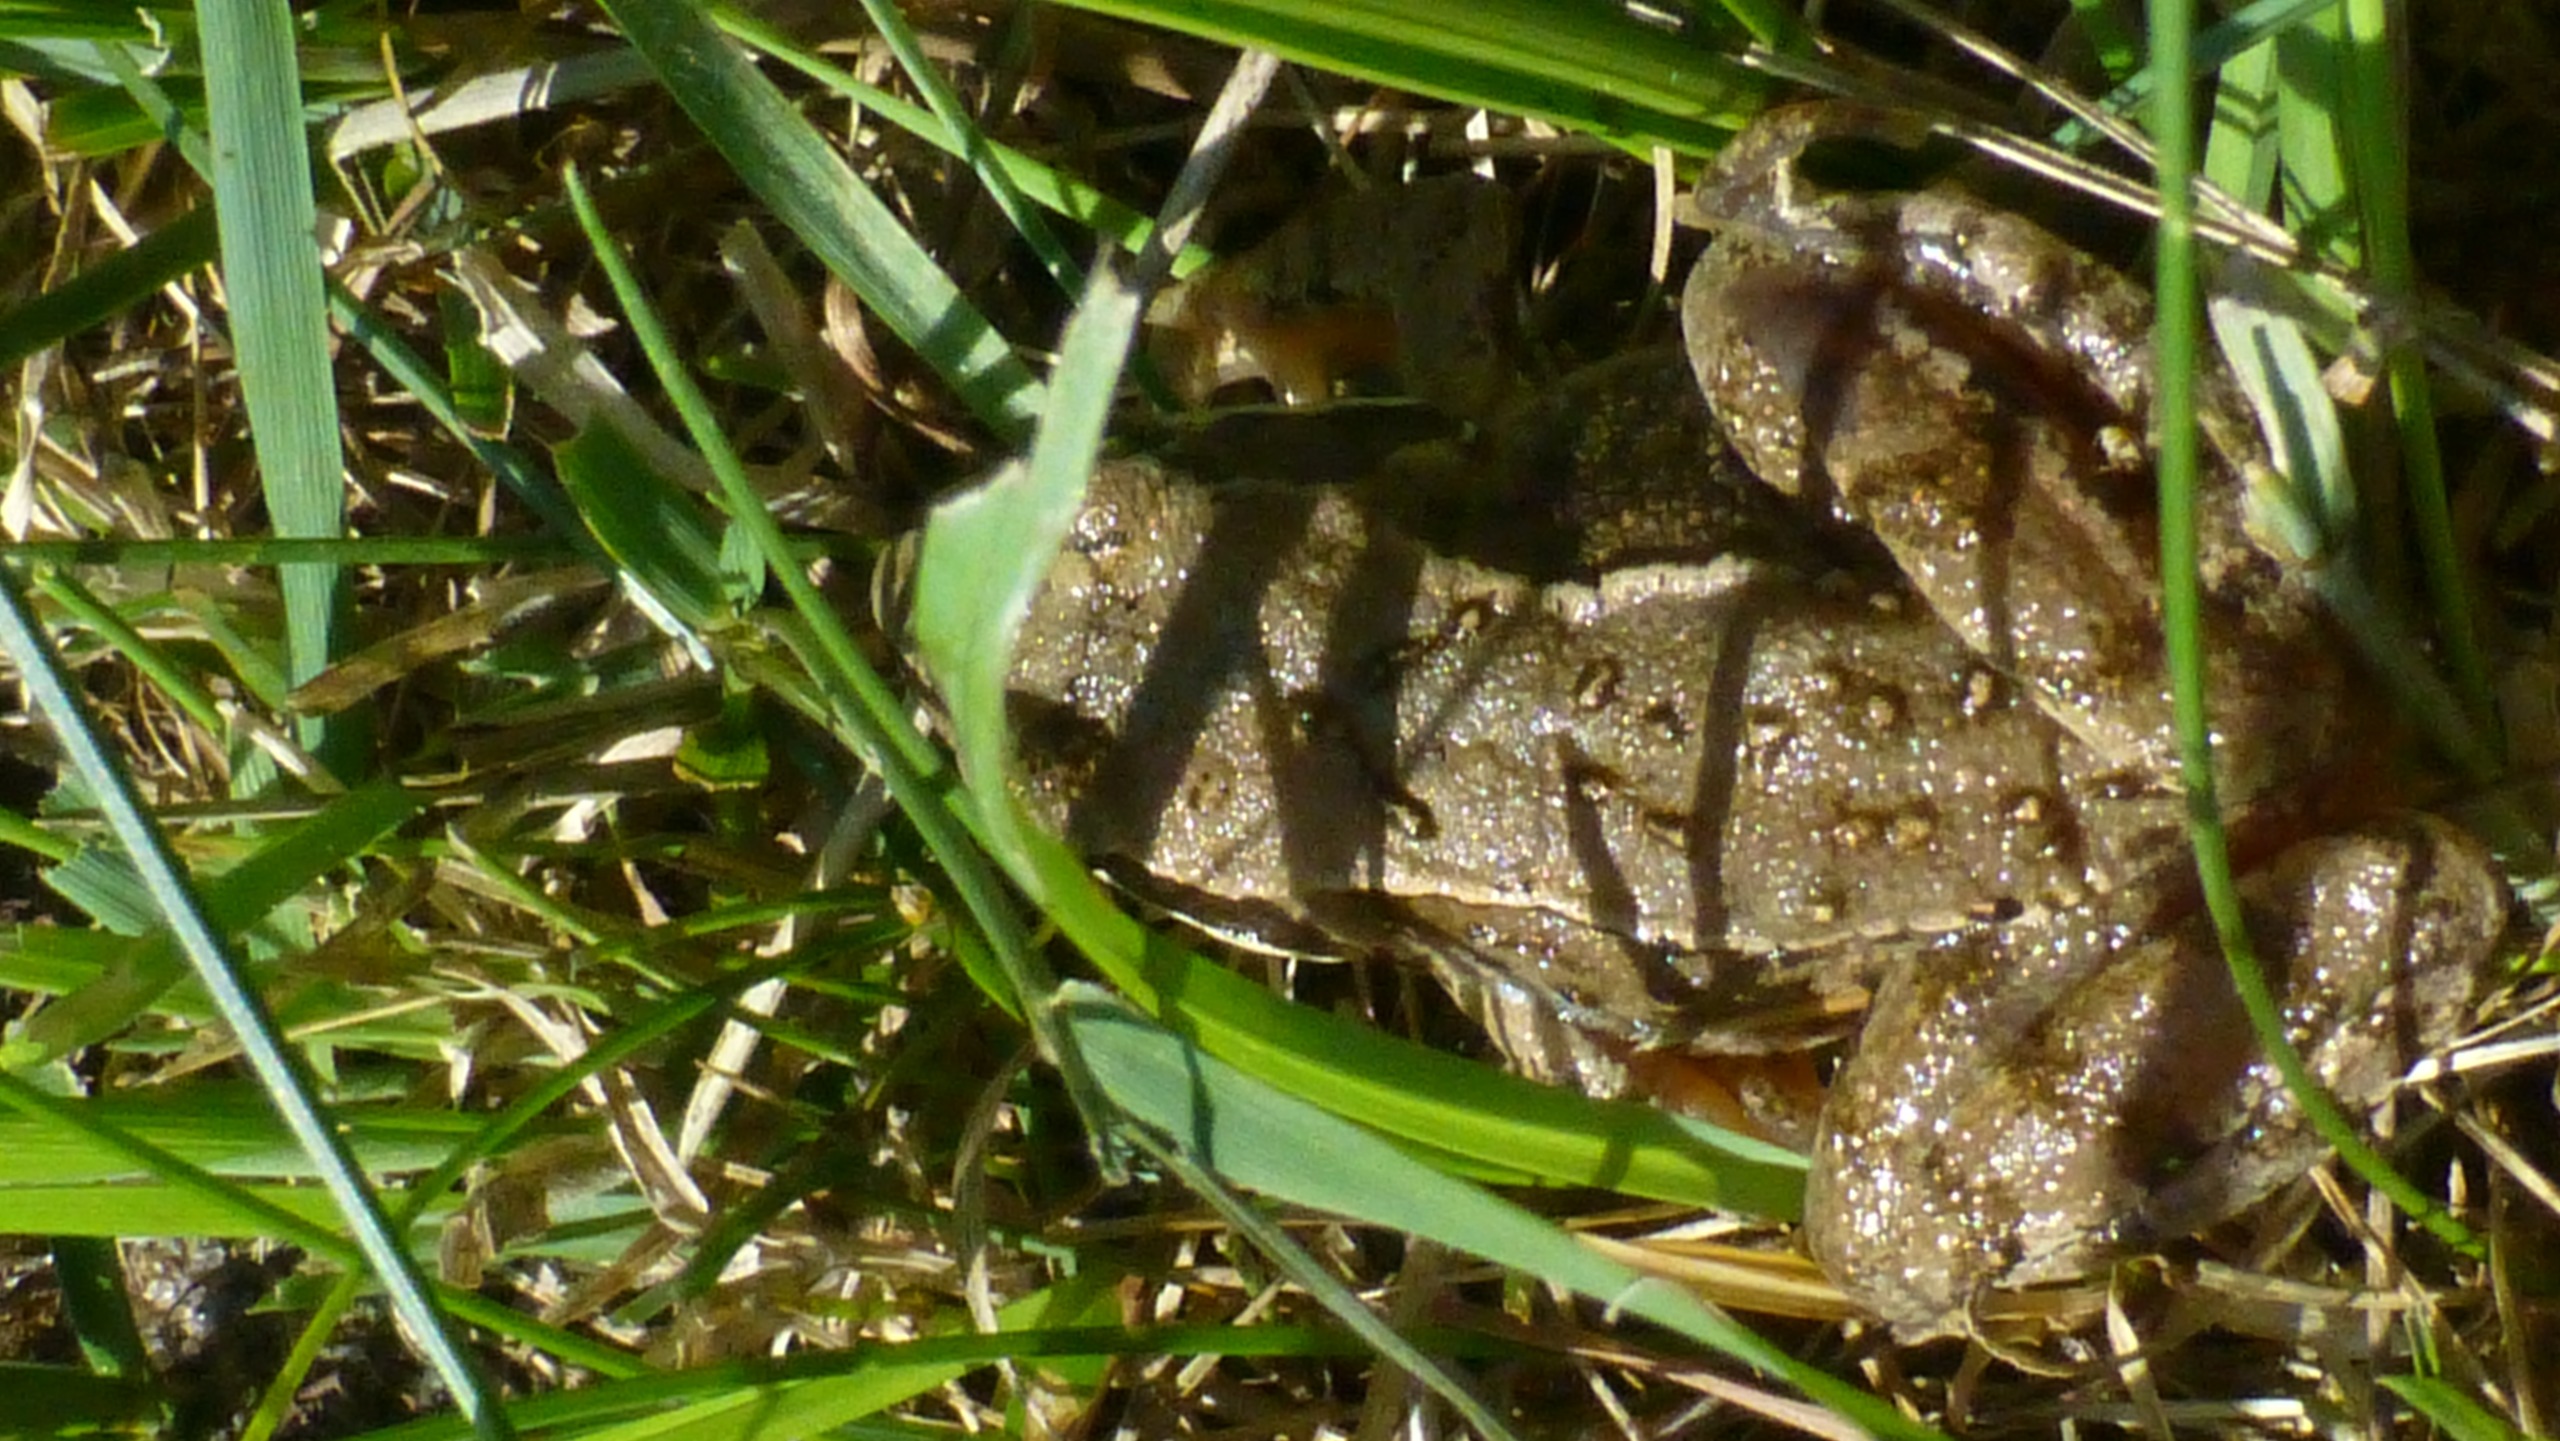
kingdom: Animalia
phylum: Chordata
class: Amphibia
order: Anura
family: Ranidae
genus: Rana
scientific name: Rana temporaria
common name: Butsnudet frø
